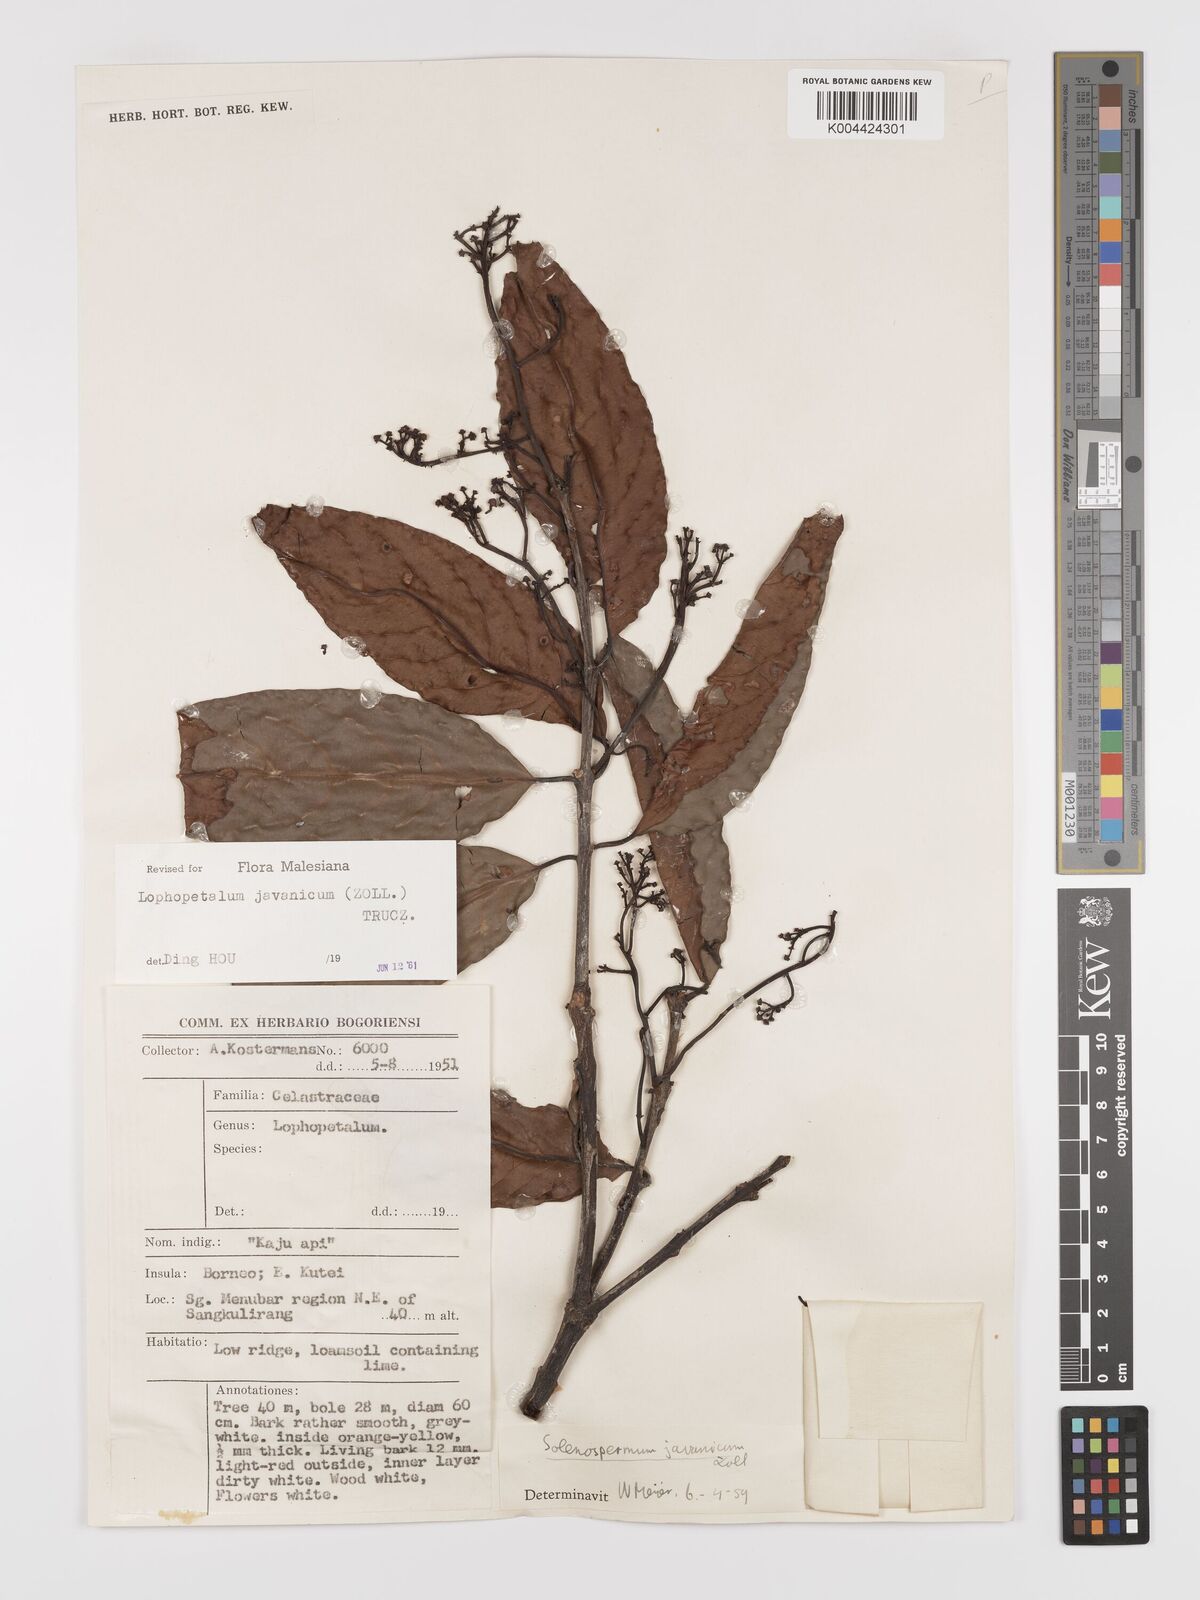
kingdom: Plantae
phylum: Tracheophyta
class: Magnoliopsida
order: Celastrales
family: Celastraceae
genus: Lophopetalum
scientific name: Lophopetalum javanicum
